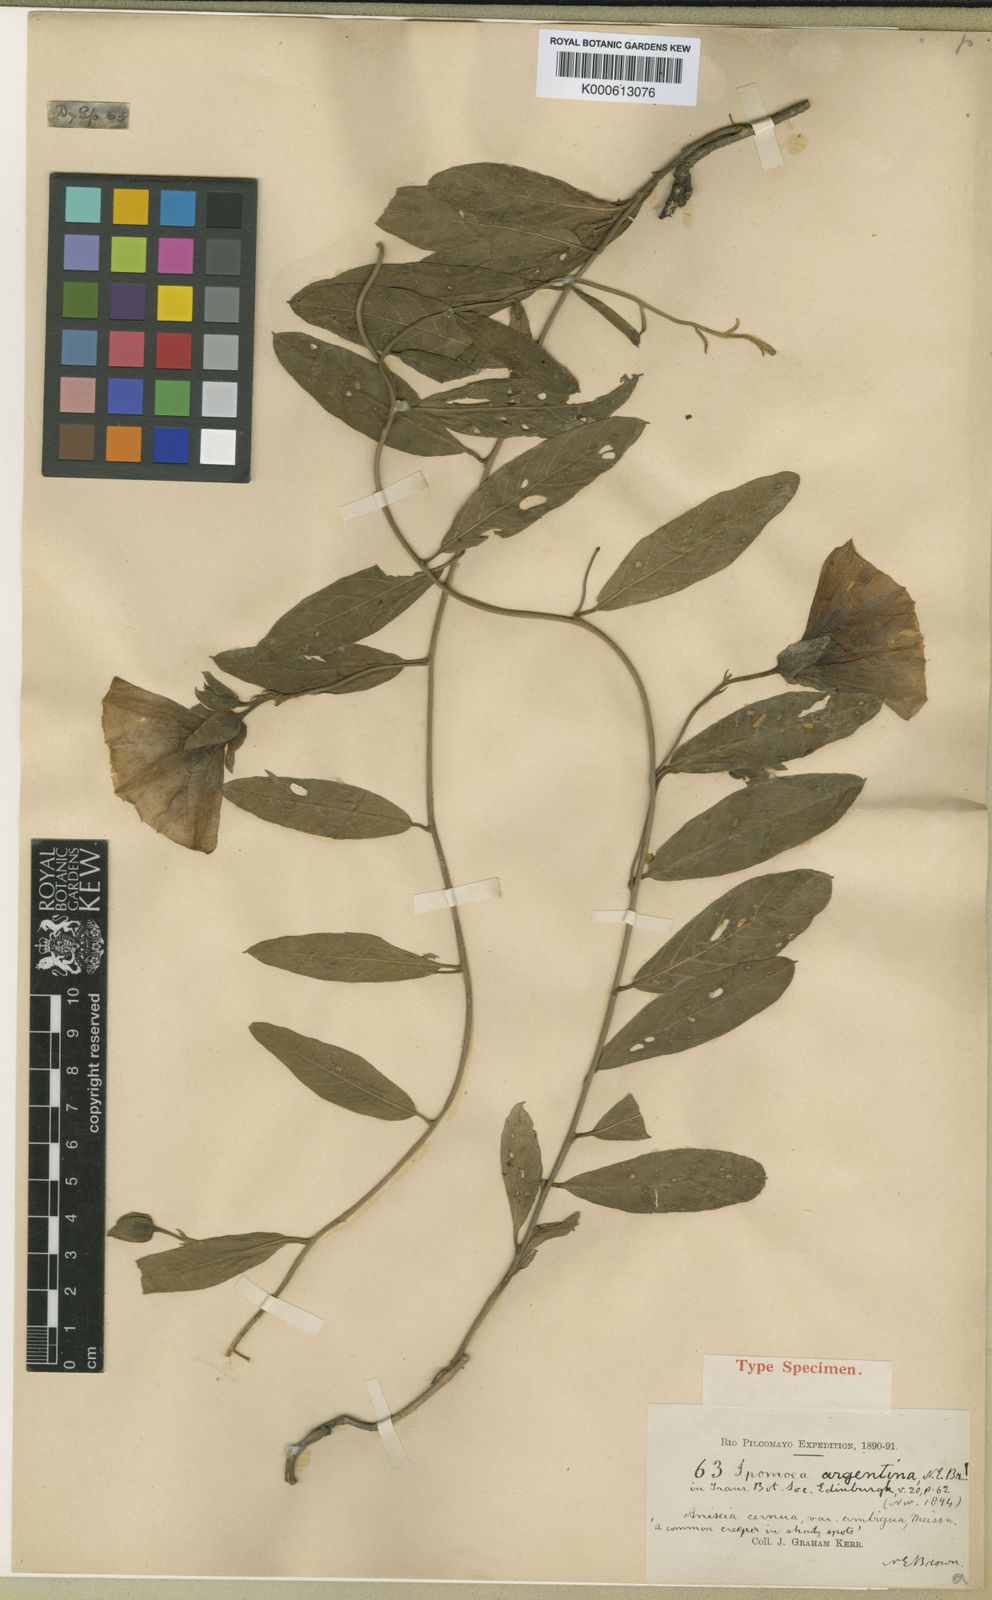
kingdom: Plantae
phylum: Tracheophyta
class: Magnoliopsida
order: Solanales
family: Convolvulaceae
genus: Aniseia
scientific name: Aniseia argentina
